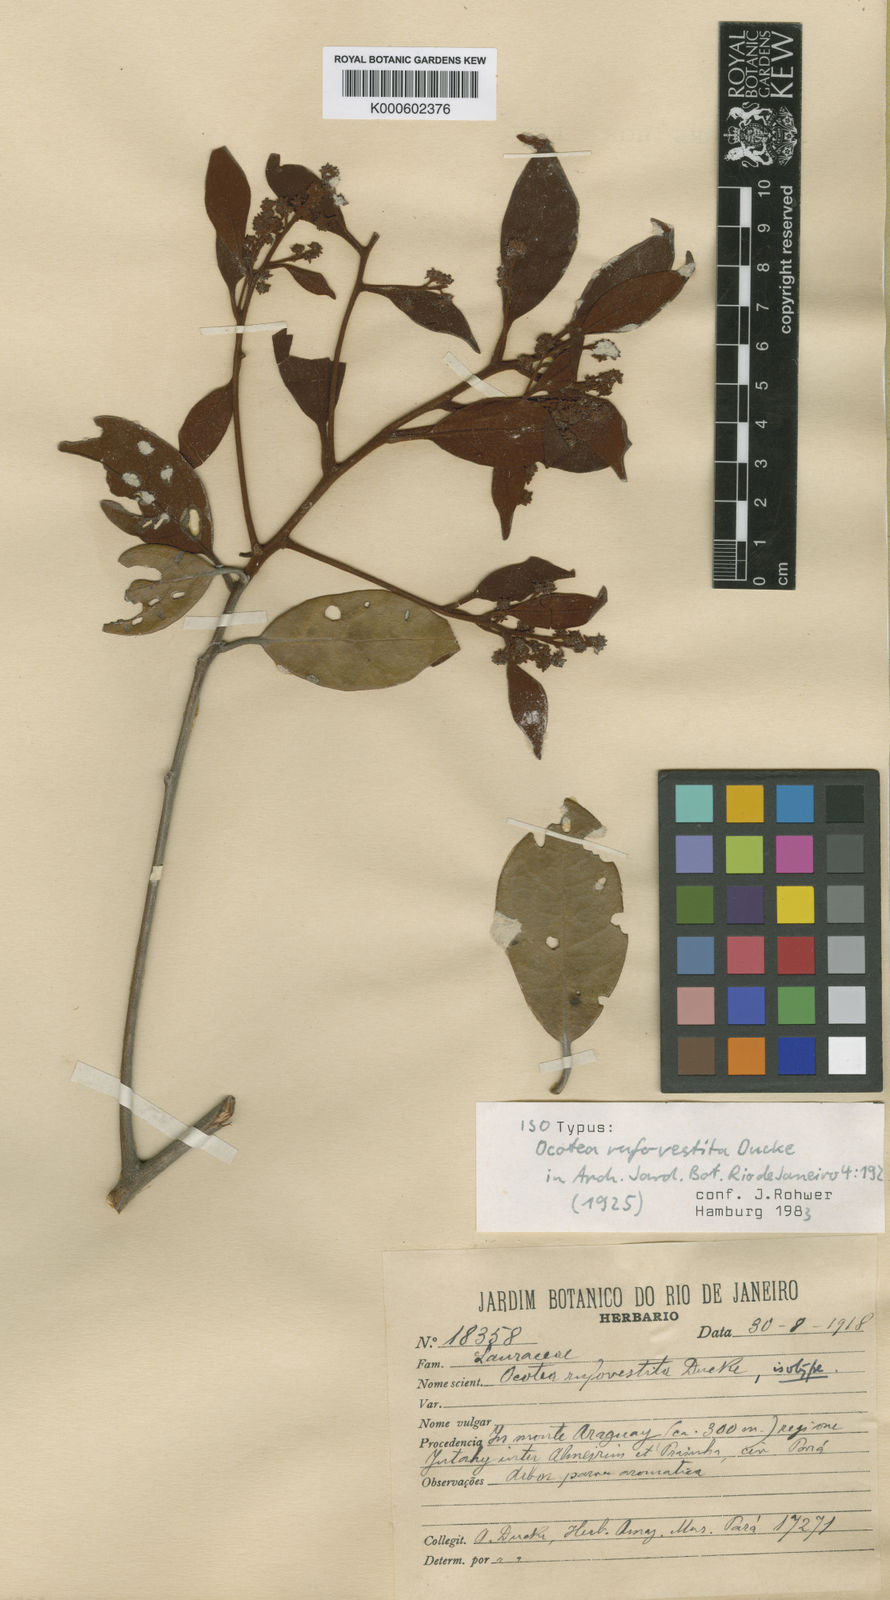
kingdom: Plantae
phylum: Tracheophyta
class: Magnoliopsida
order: Laurales
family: Lauraceae
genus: Ocotea
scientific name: Ocotea rufovestita
